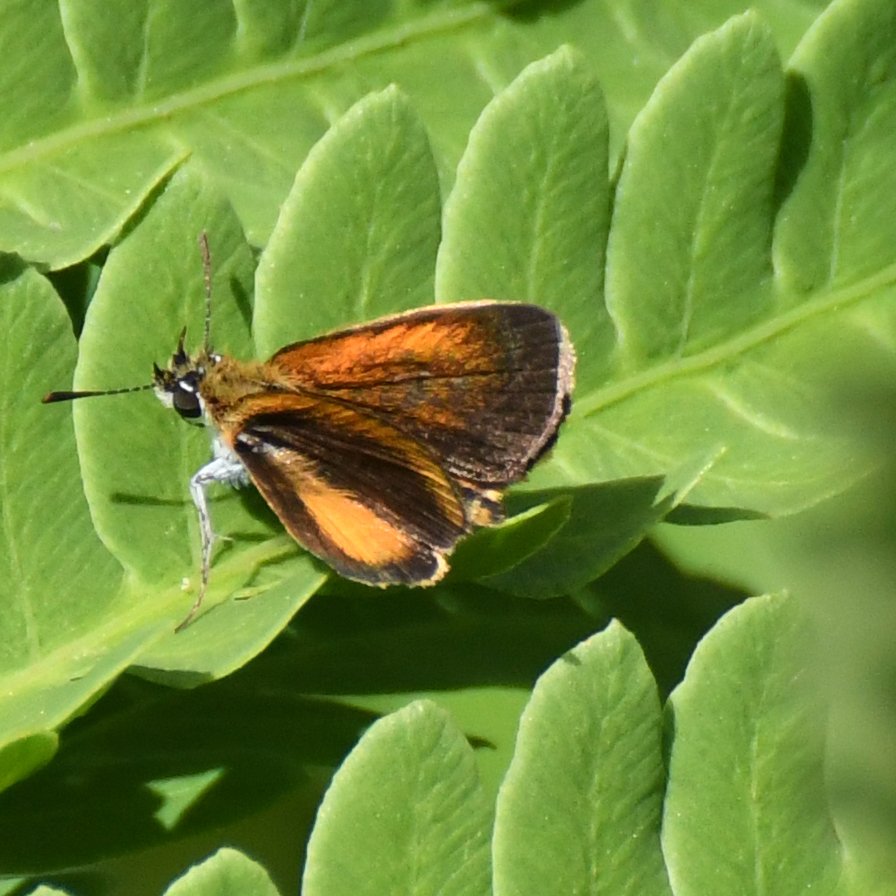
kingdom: Animalia
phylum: Arthropoda
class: Insecta
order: Lepidoptera
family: Hesperiidae
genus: Ancyloxypha
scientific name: Ancyloxypha numitor
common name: Least Skipper
